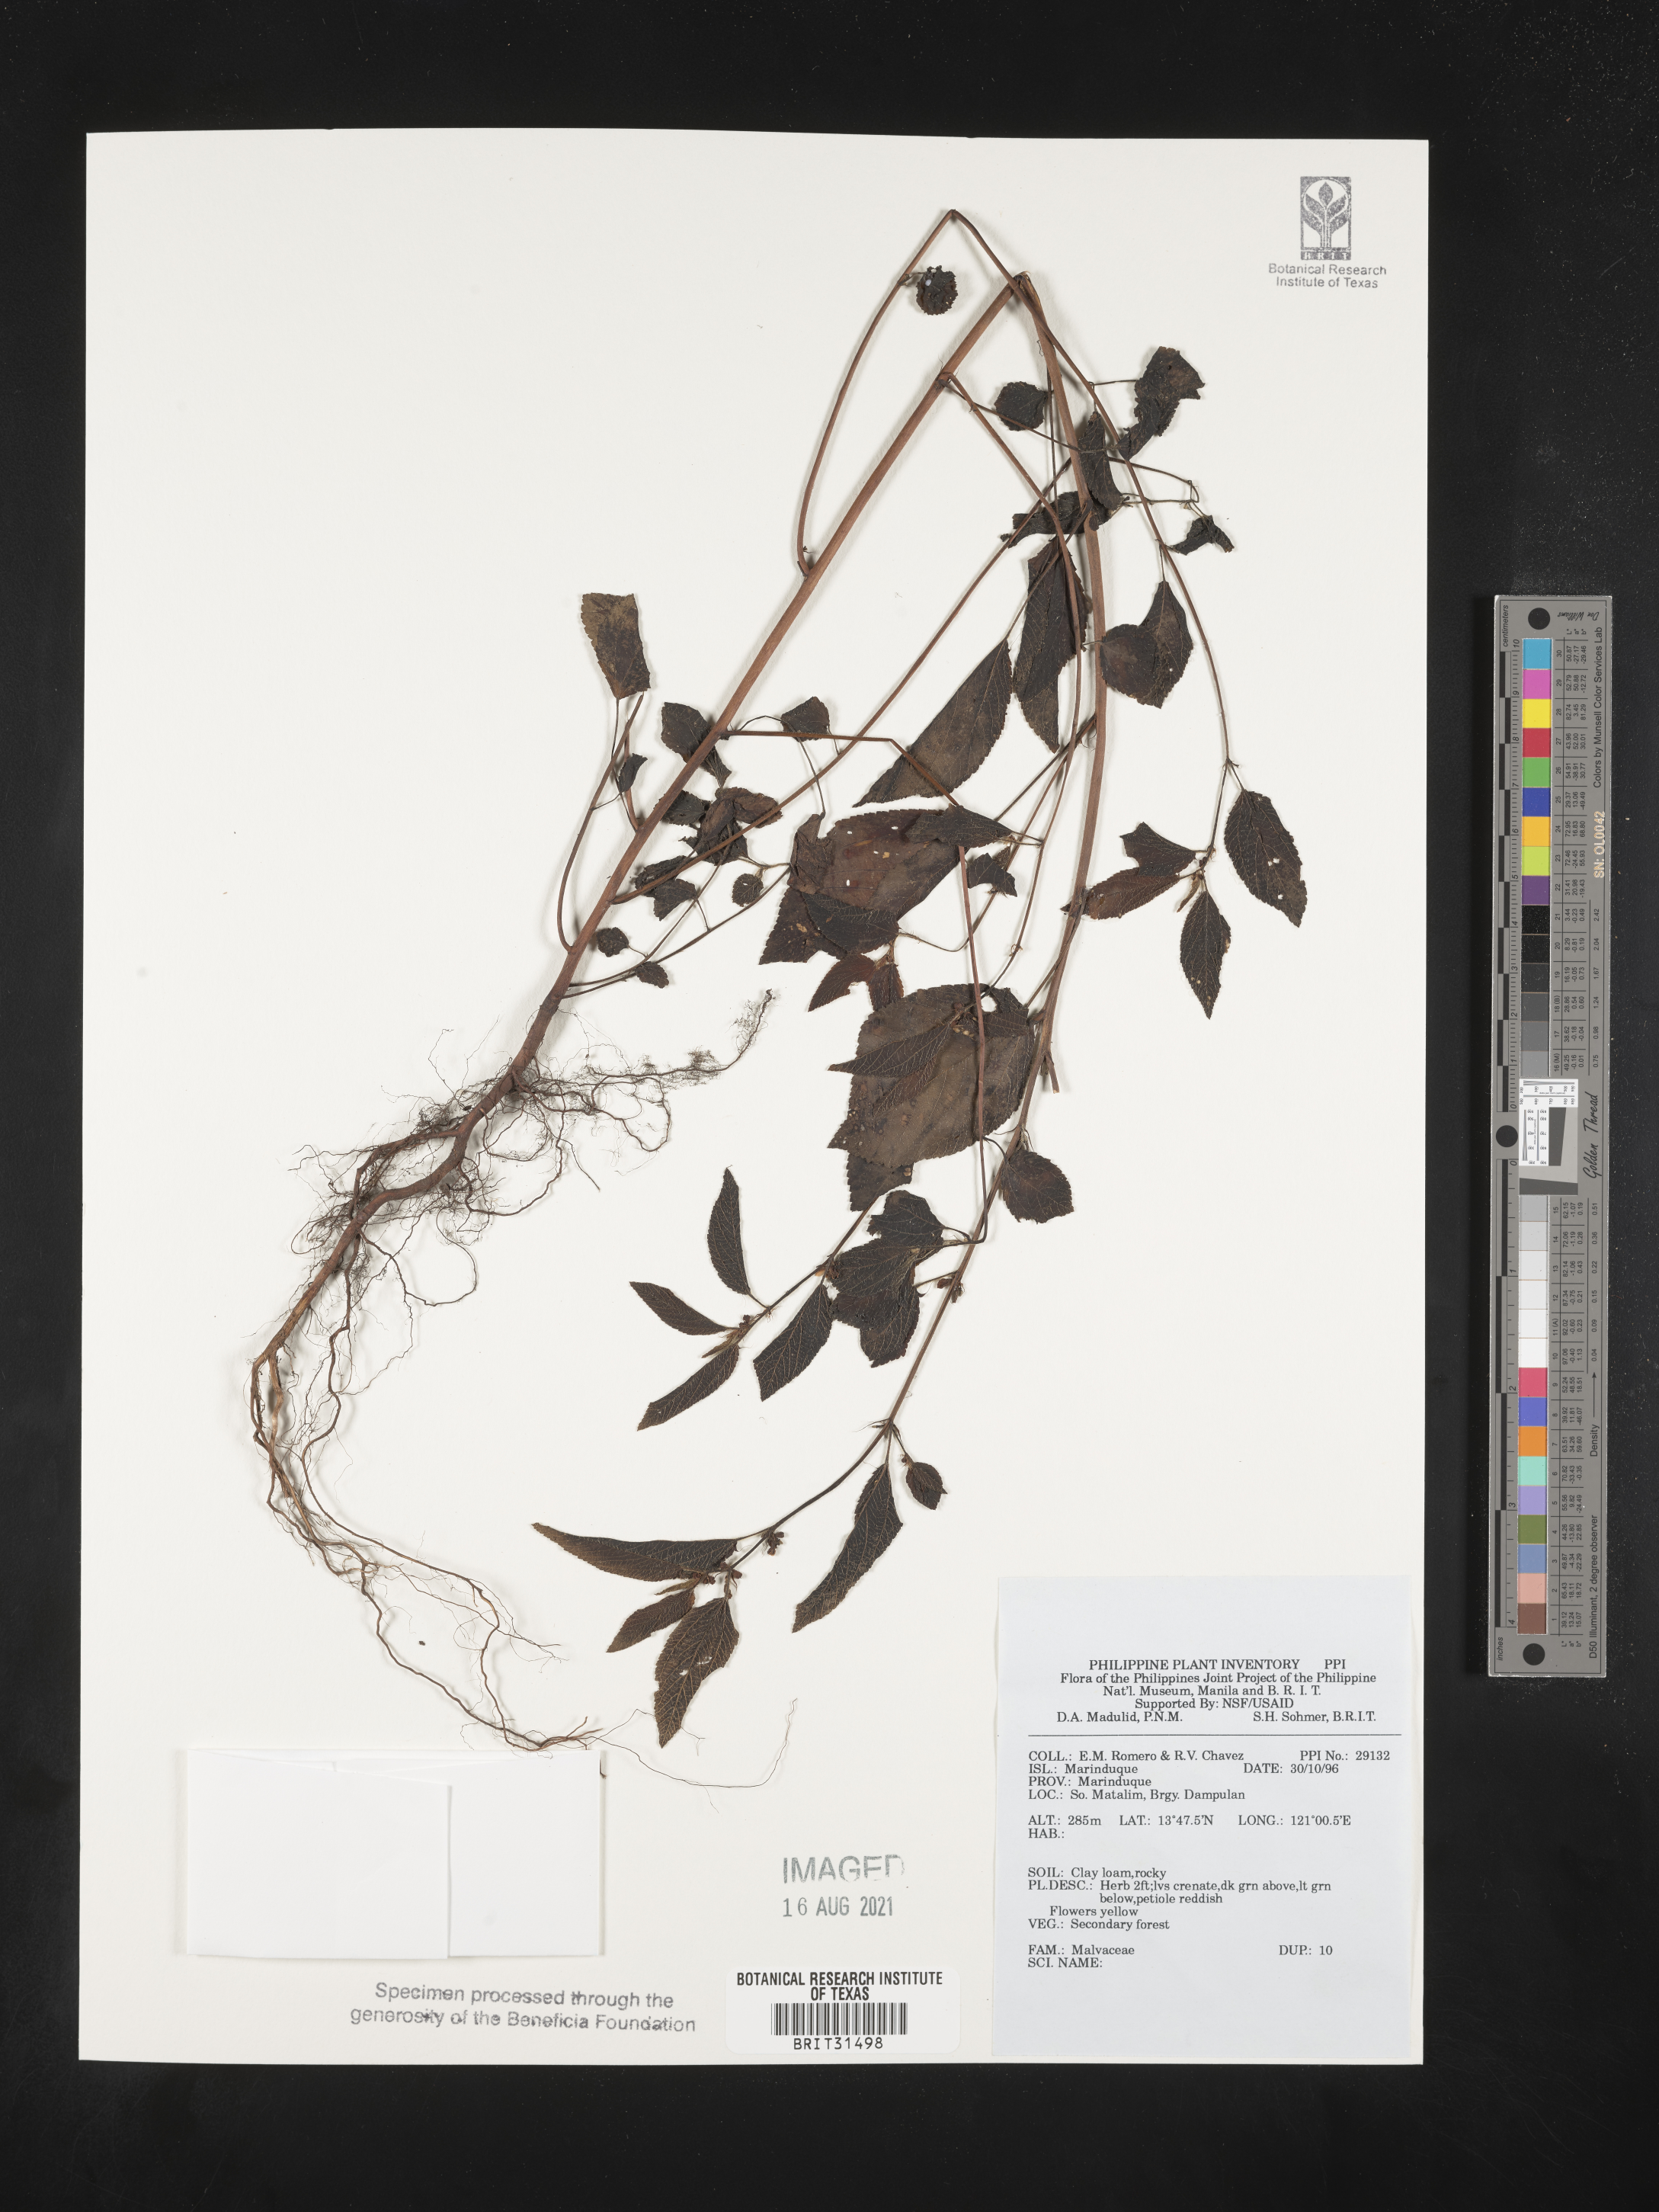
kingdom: Plantae
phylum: Tracheophyta
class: Magnoliopsida
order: Malvales
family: Malvaceae
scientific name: Malvaceae
